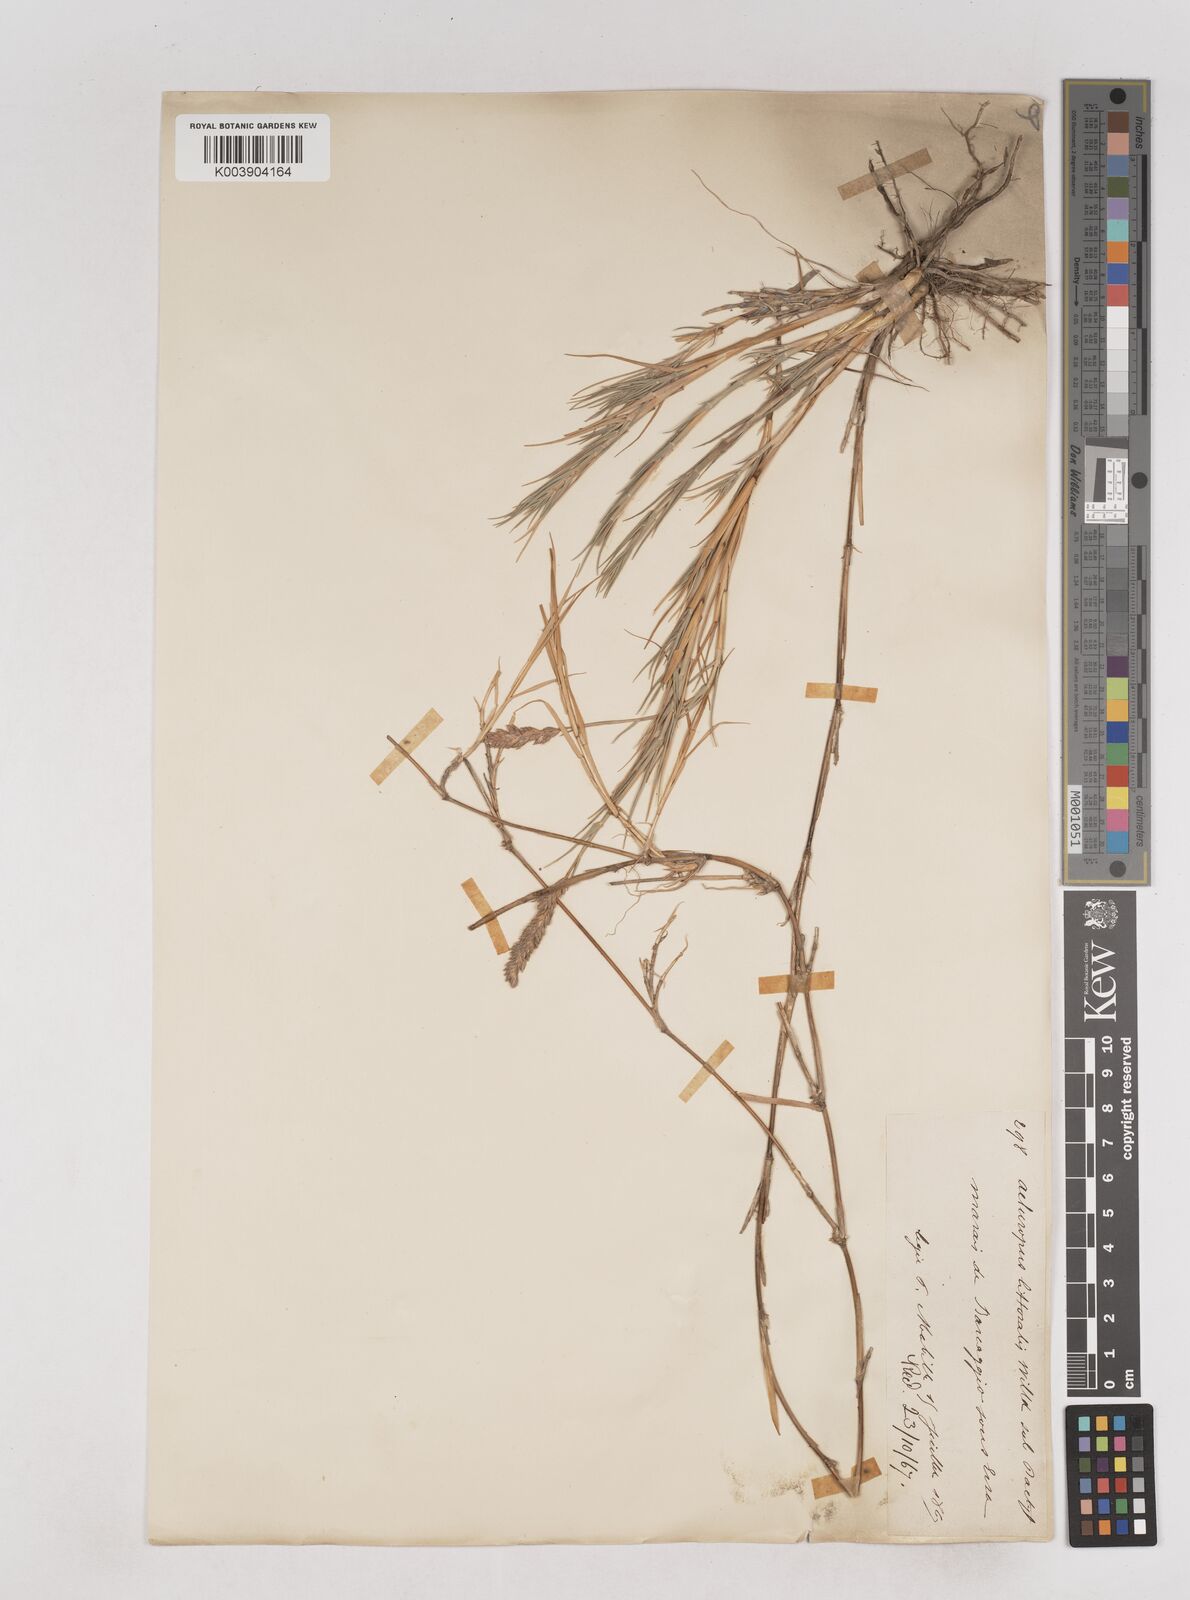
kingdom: Plantae
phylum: Tracheophyta
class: Liliopsida
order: Poales
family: Poaceae
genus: Aeluropus
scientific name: Aeluropus littoralis
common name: Indian walnut
